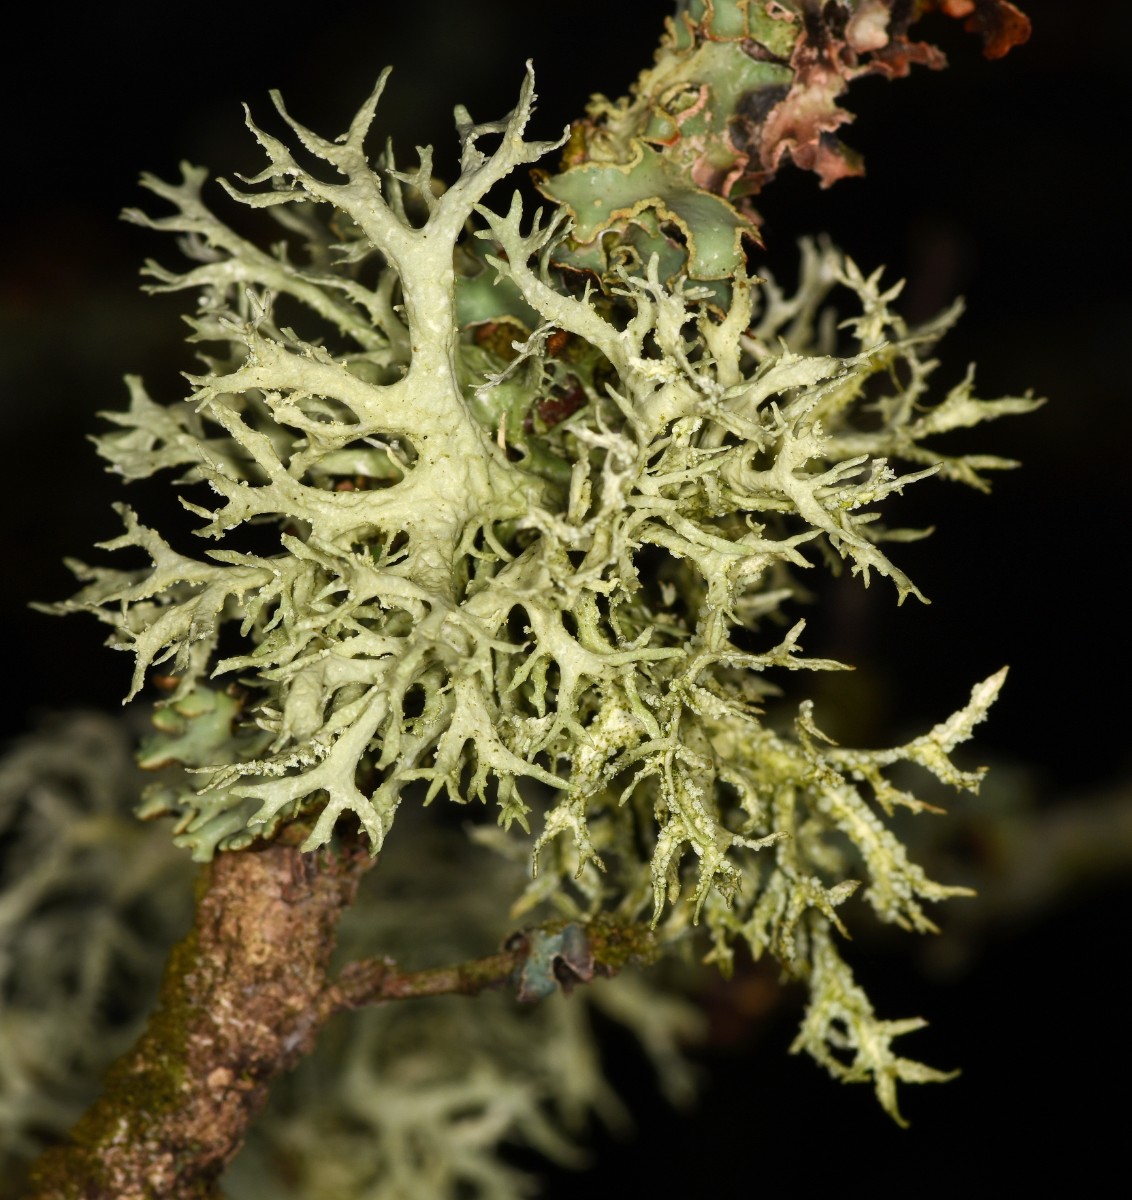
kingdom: Fungi
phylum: Ascomycota
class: Lecanoromycetes
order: Lecanorales
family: Parmeliaceae
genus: Evernia
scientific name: Evernia prunastri
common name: almindelig slåenlav
